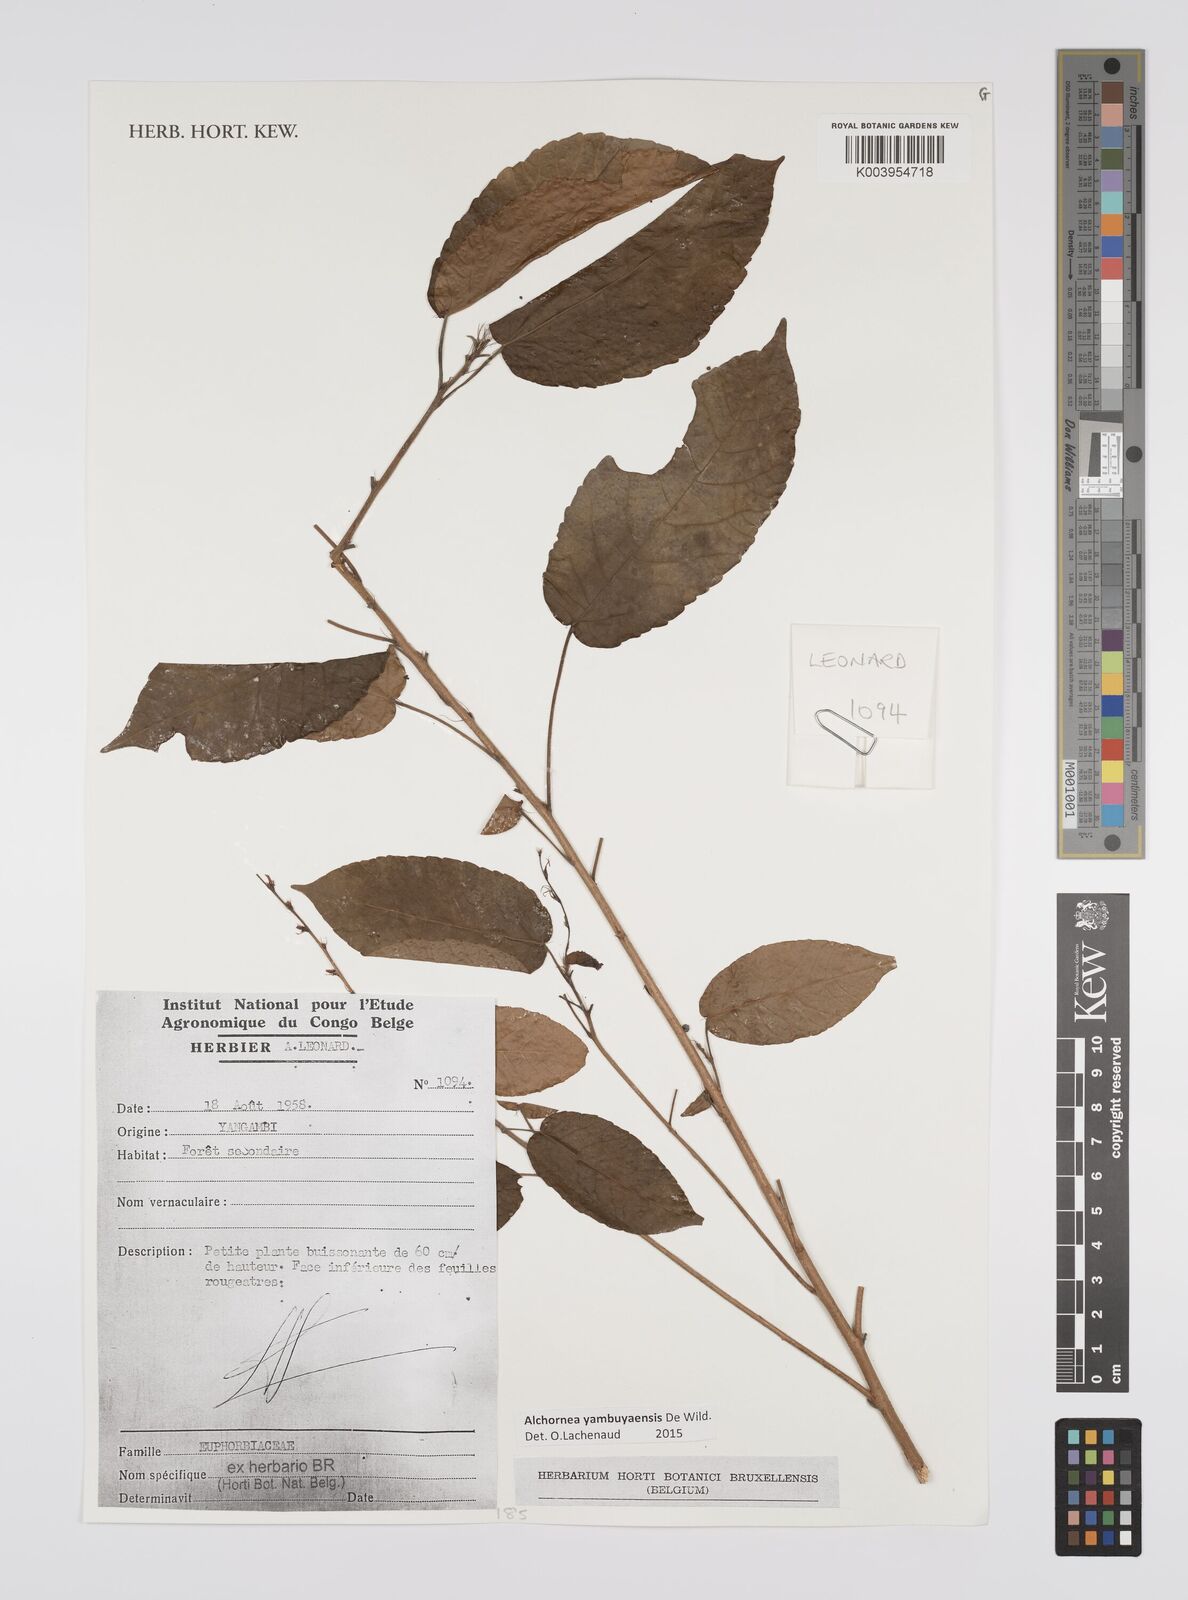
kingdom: Plantae
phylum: Tracheophyta
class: Magnoliopsida
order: Malpighiales
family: Euphorbiaceae
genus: Alchornea
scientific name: Alchornea yambuyaensis
